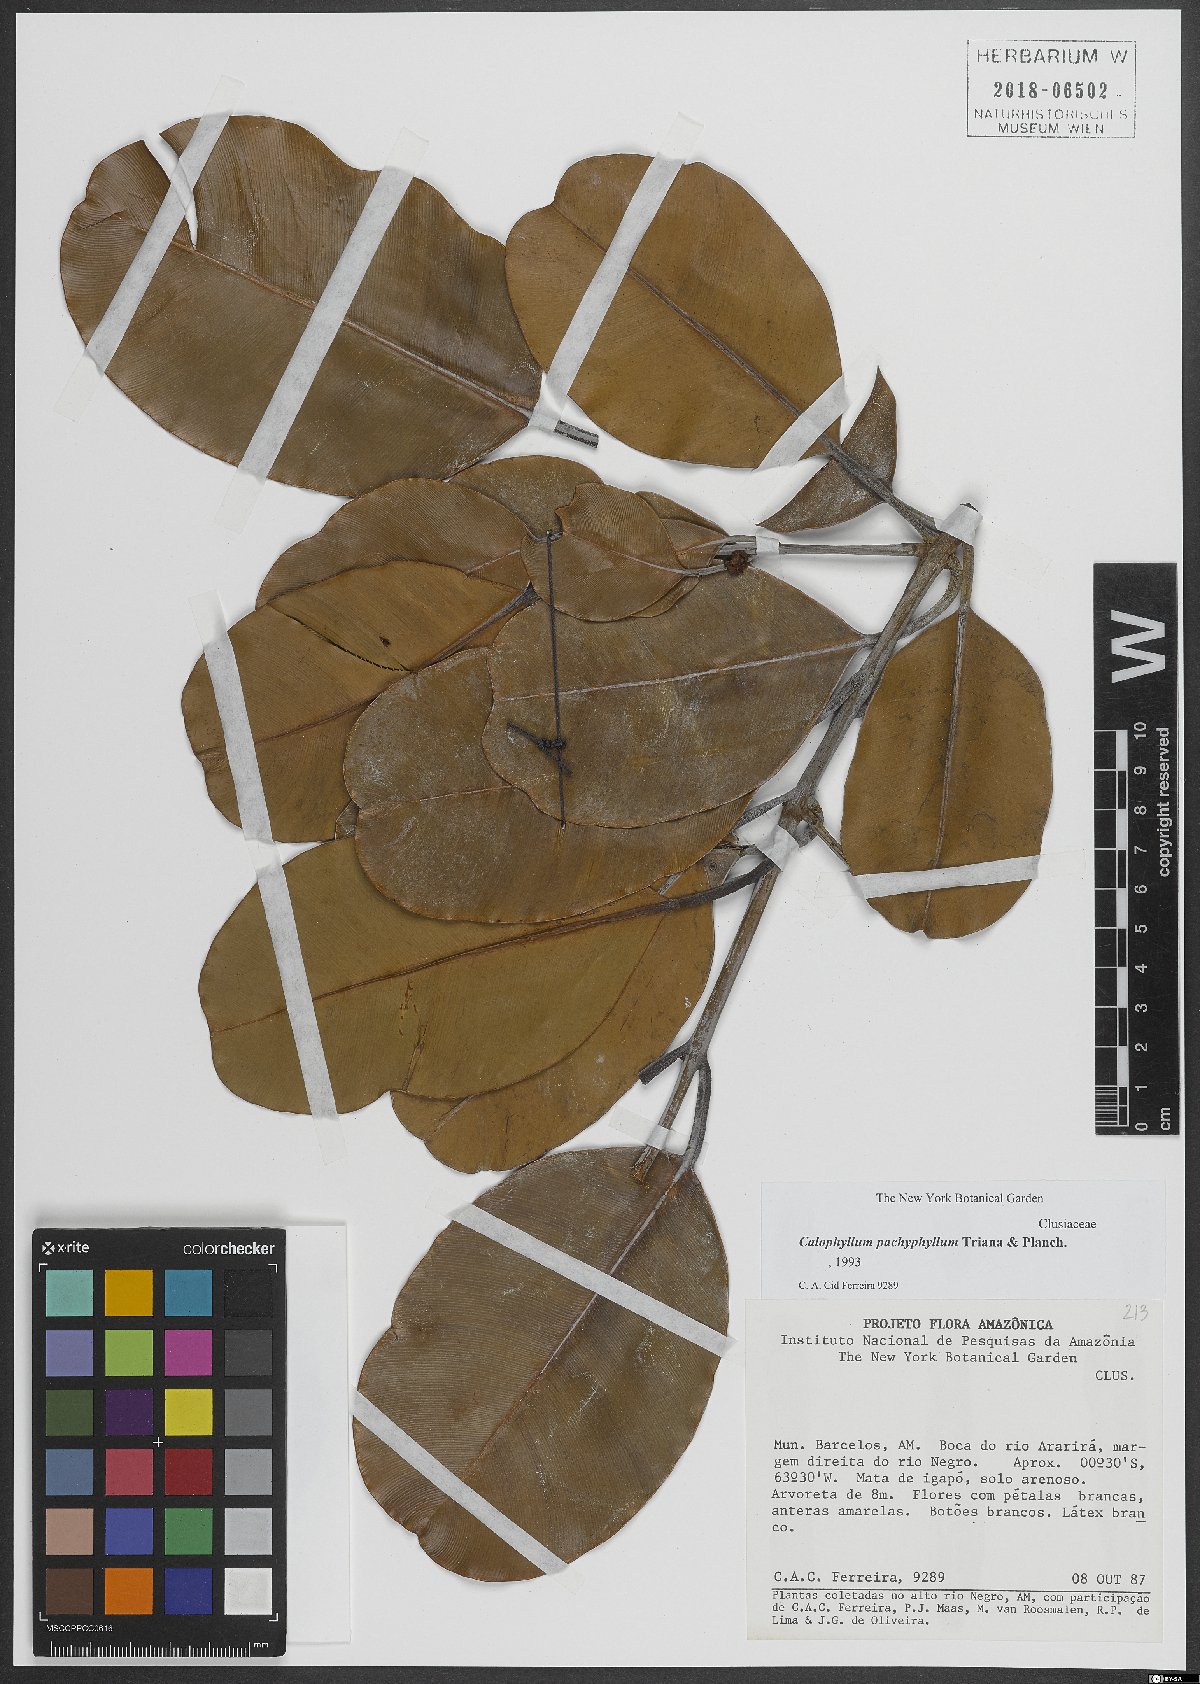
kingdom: Plantae
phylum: Tracheophyta
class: Magnoliopsida
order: Malpighiales
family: Calophyllaceae
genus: Calophyllum
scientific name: Calophyllum pachyphyllum
